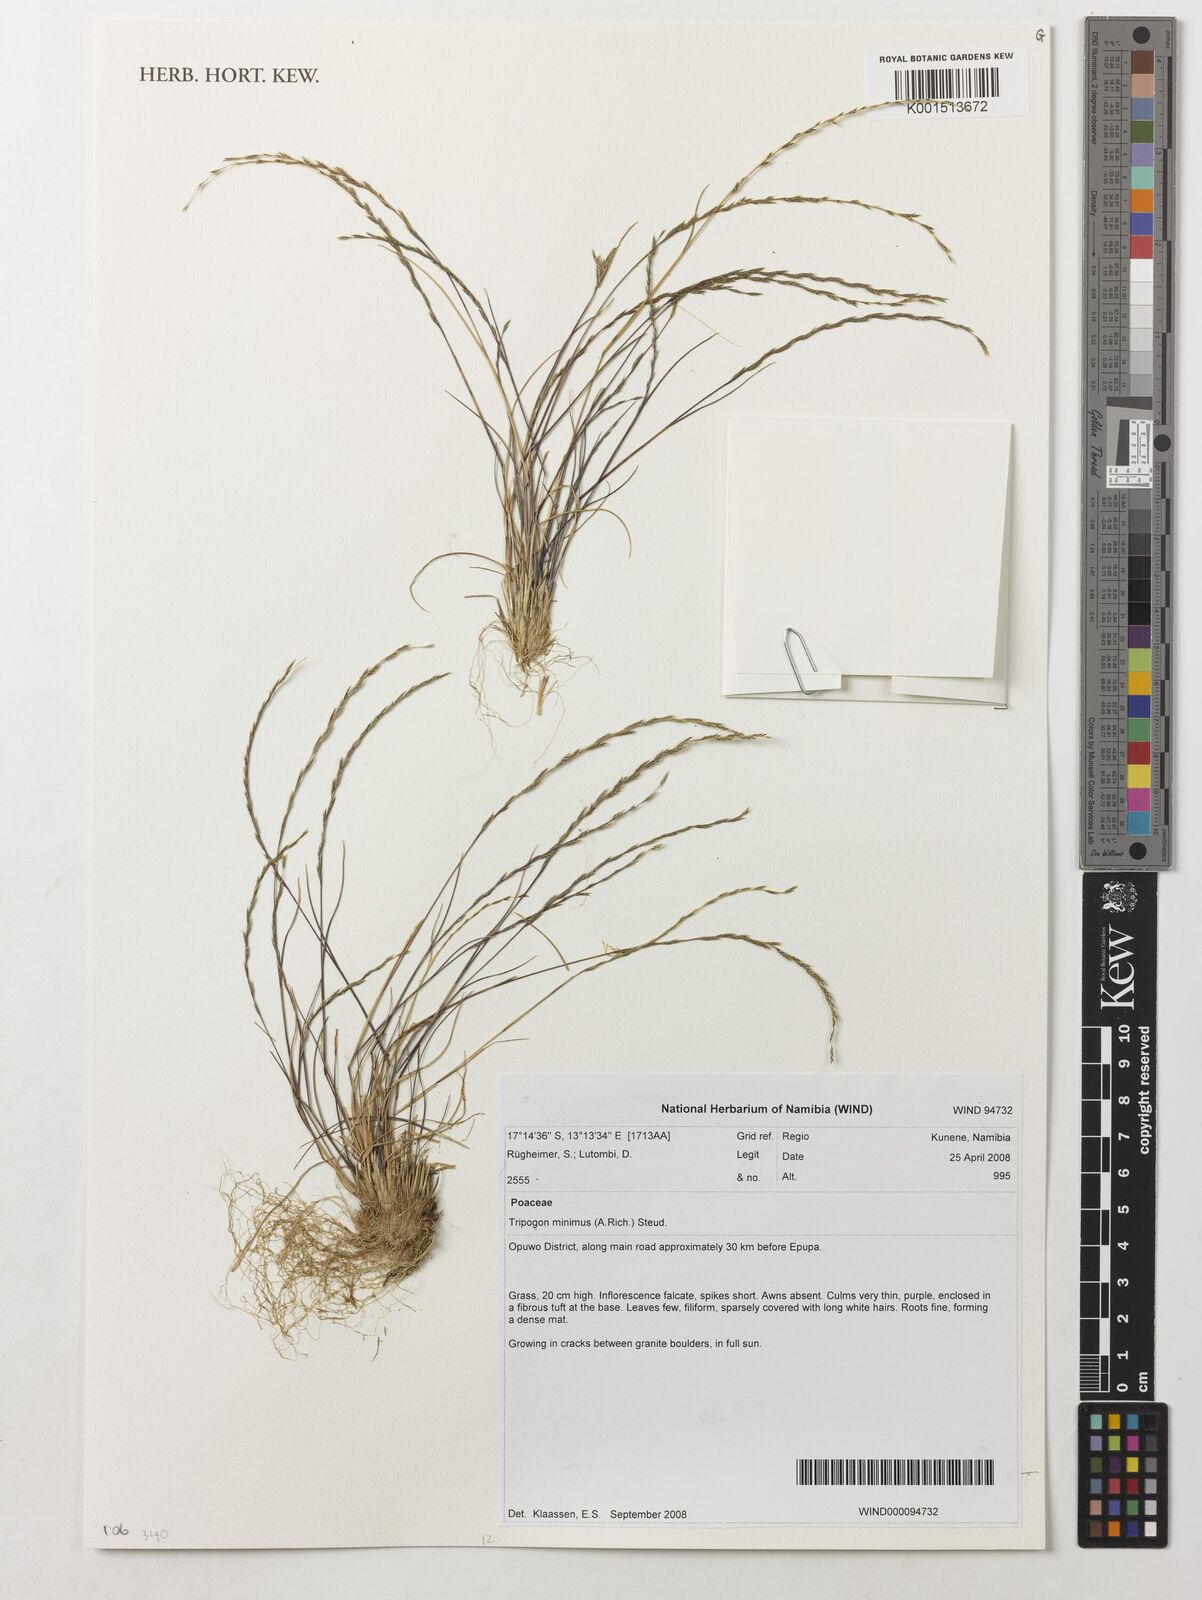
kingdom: Plantae
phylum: Tracheophyta
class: Liliopsida
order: Poales
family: Poaceae
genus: Tripogonella
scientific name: Tripogonella minima
